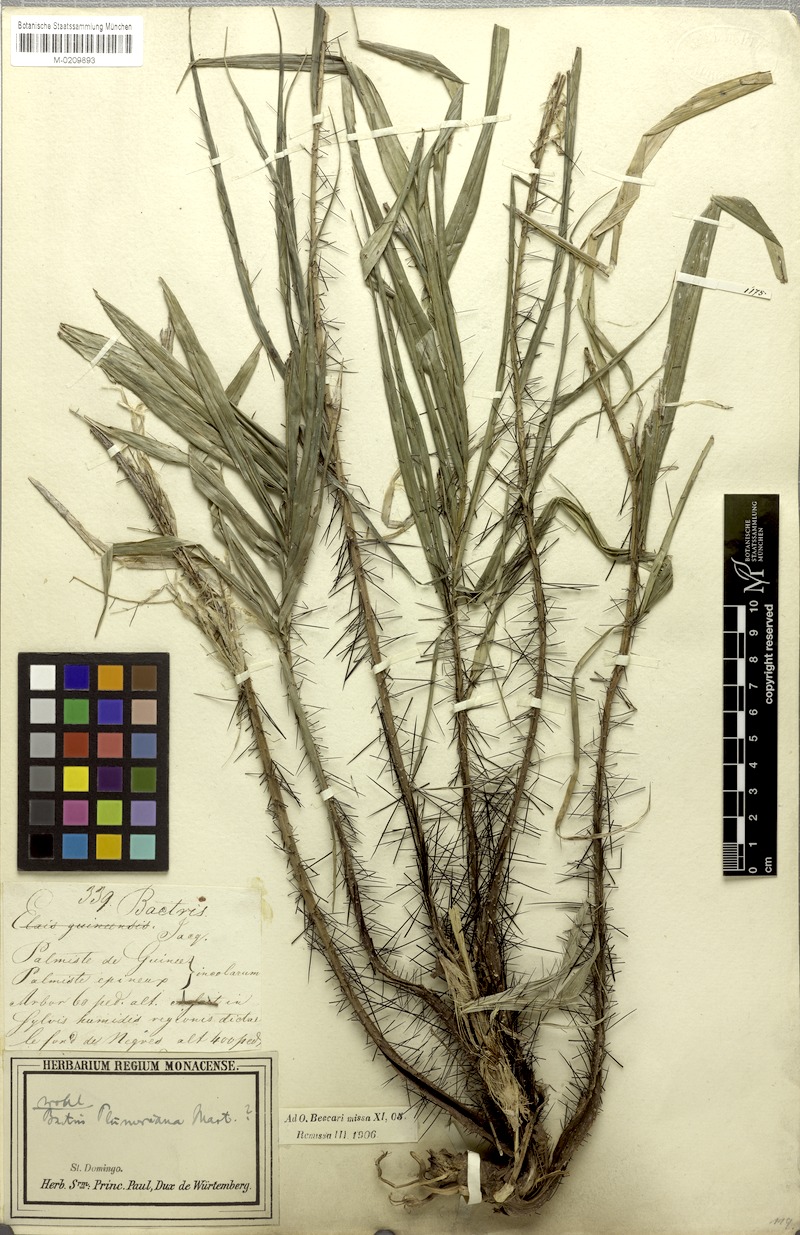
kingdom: Plantae
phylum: Tracheophyta
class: Liliopsida
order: Arecales
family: Arecaceae
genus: Bactris
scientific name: Bactris plumeriana
